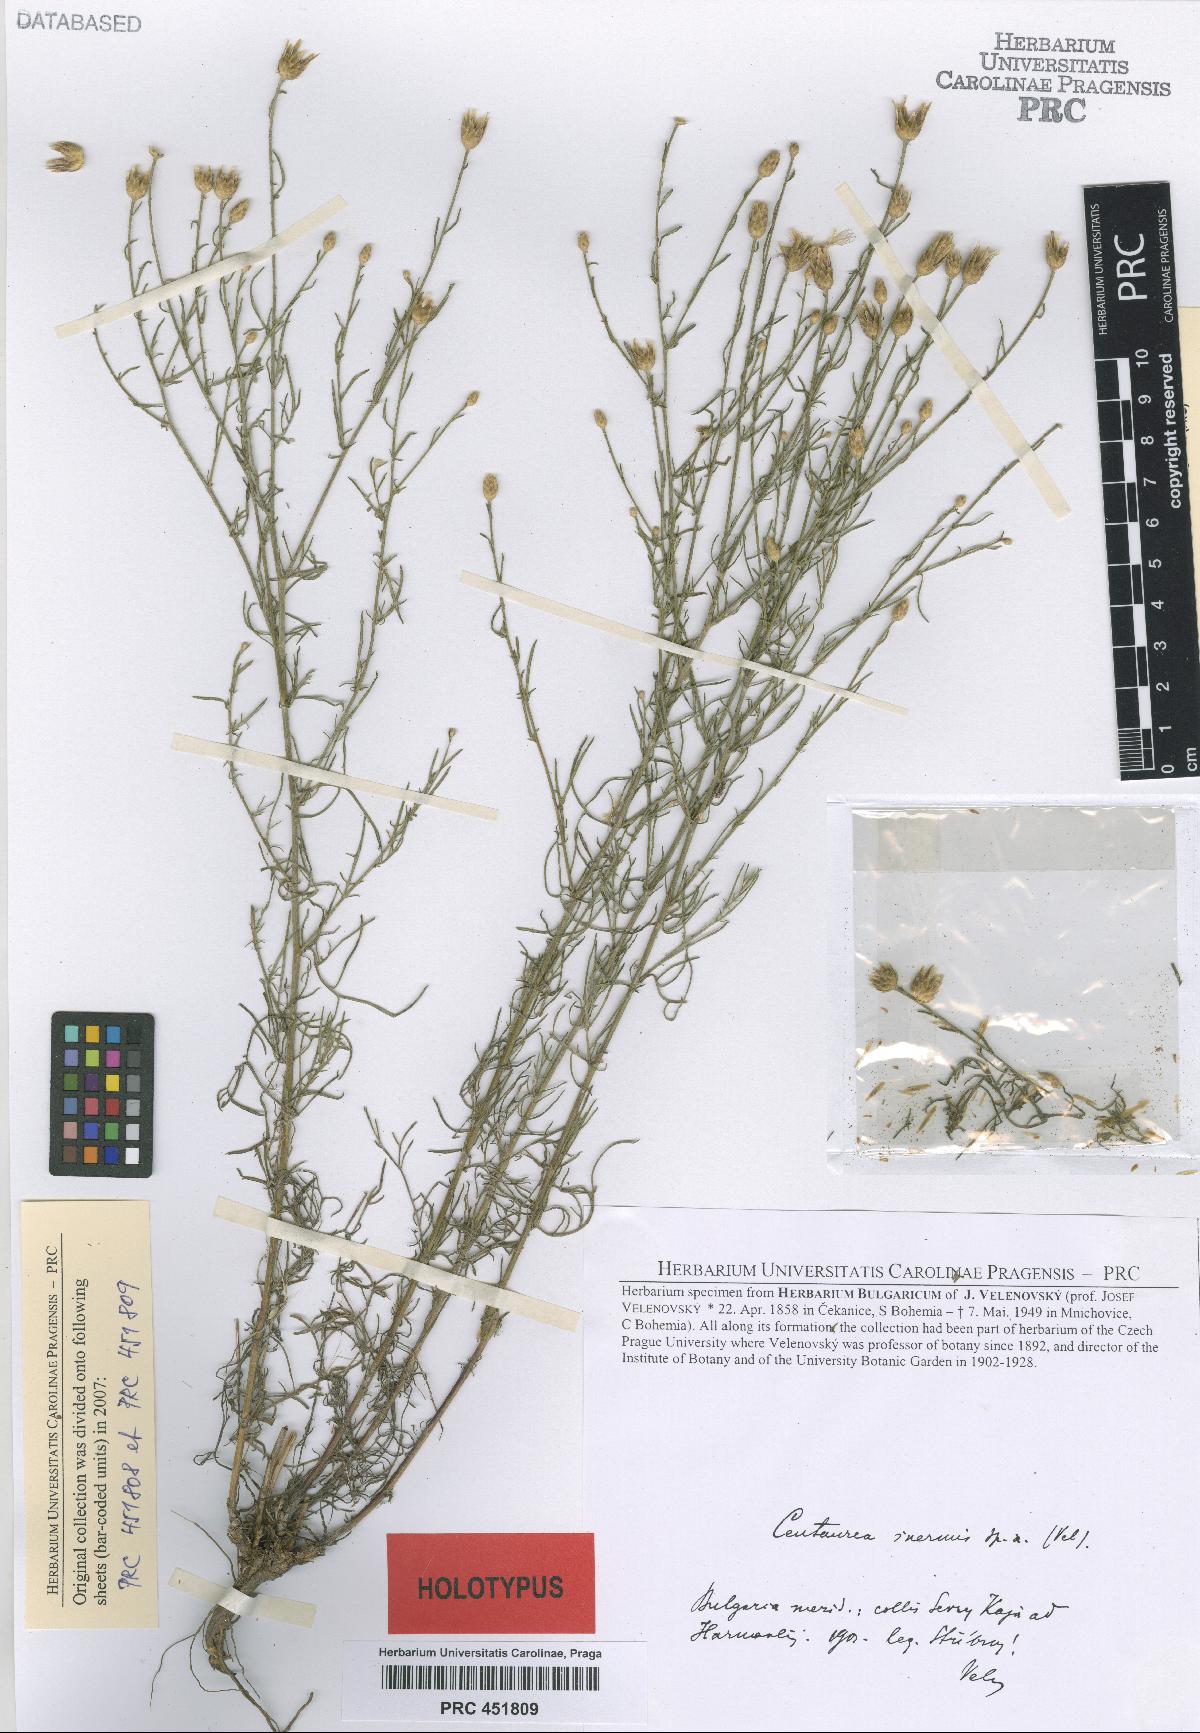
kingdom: Plantae
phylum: Tracheophyta
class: Magnoliopsida
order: Asterales
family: Asteraceae
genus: Centaurea
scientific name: Centaurea inermis
